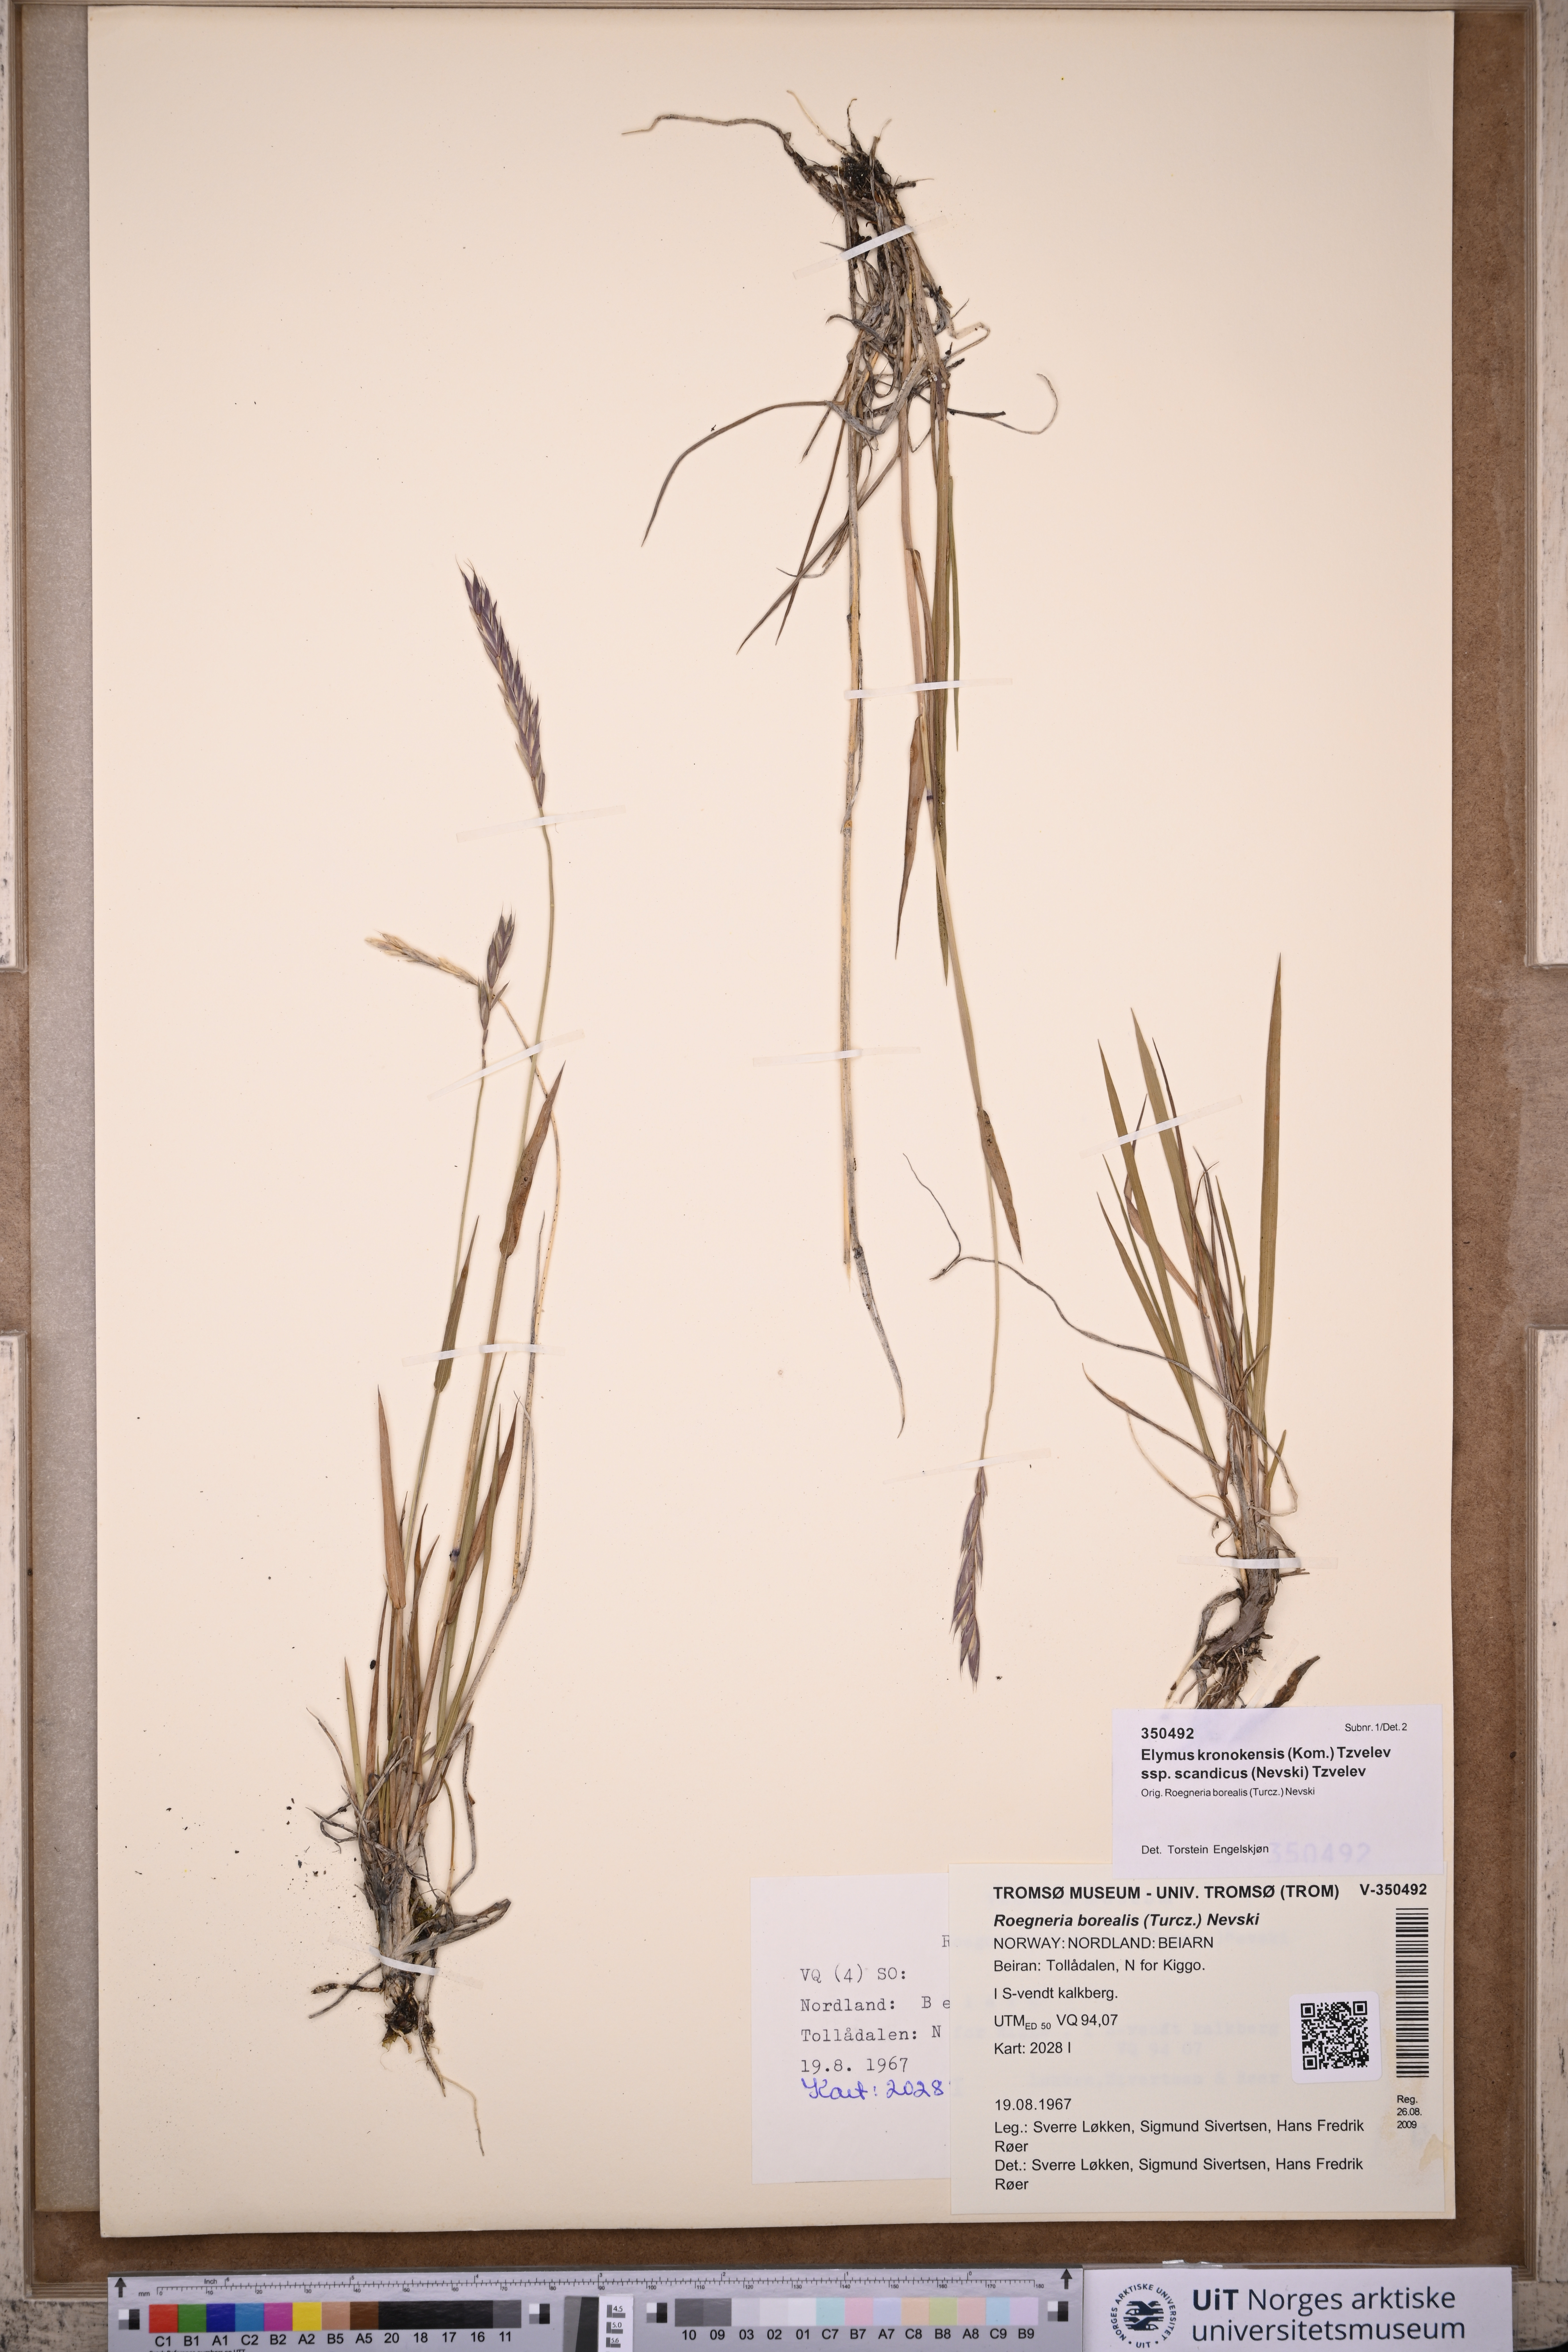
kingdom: Plantae
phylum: Tracheophyta
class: Liliopsida
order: Poales
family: Poaceae
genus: Elymus
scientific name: Elymus macrourus
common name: Northern wheatgrass
